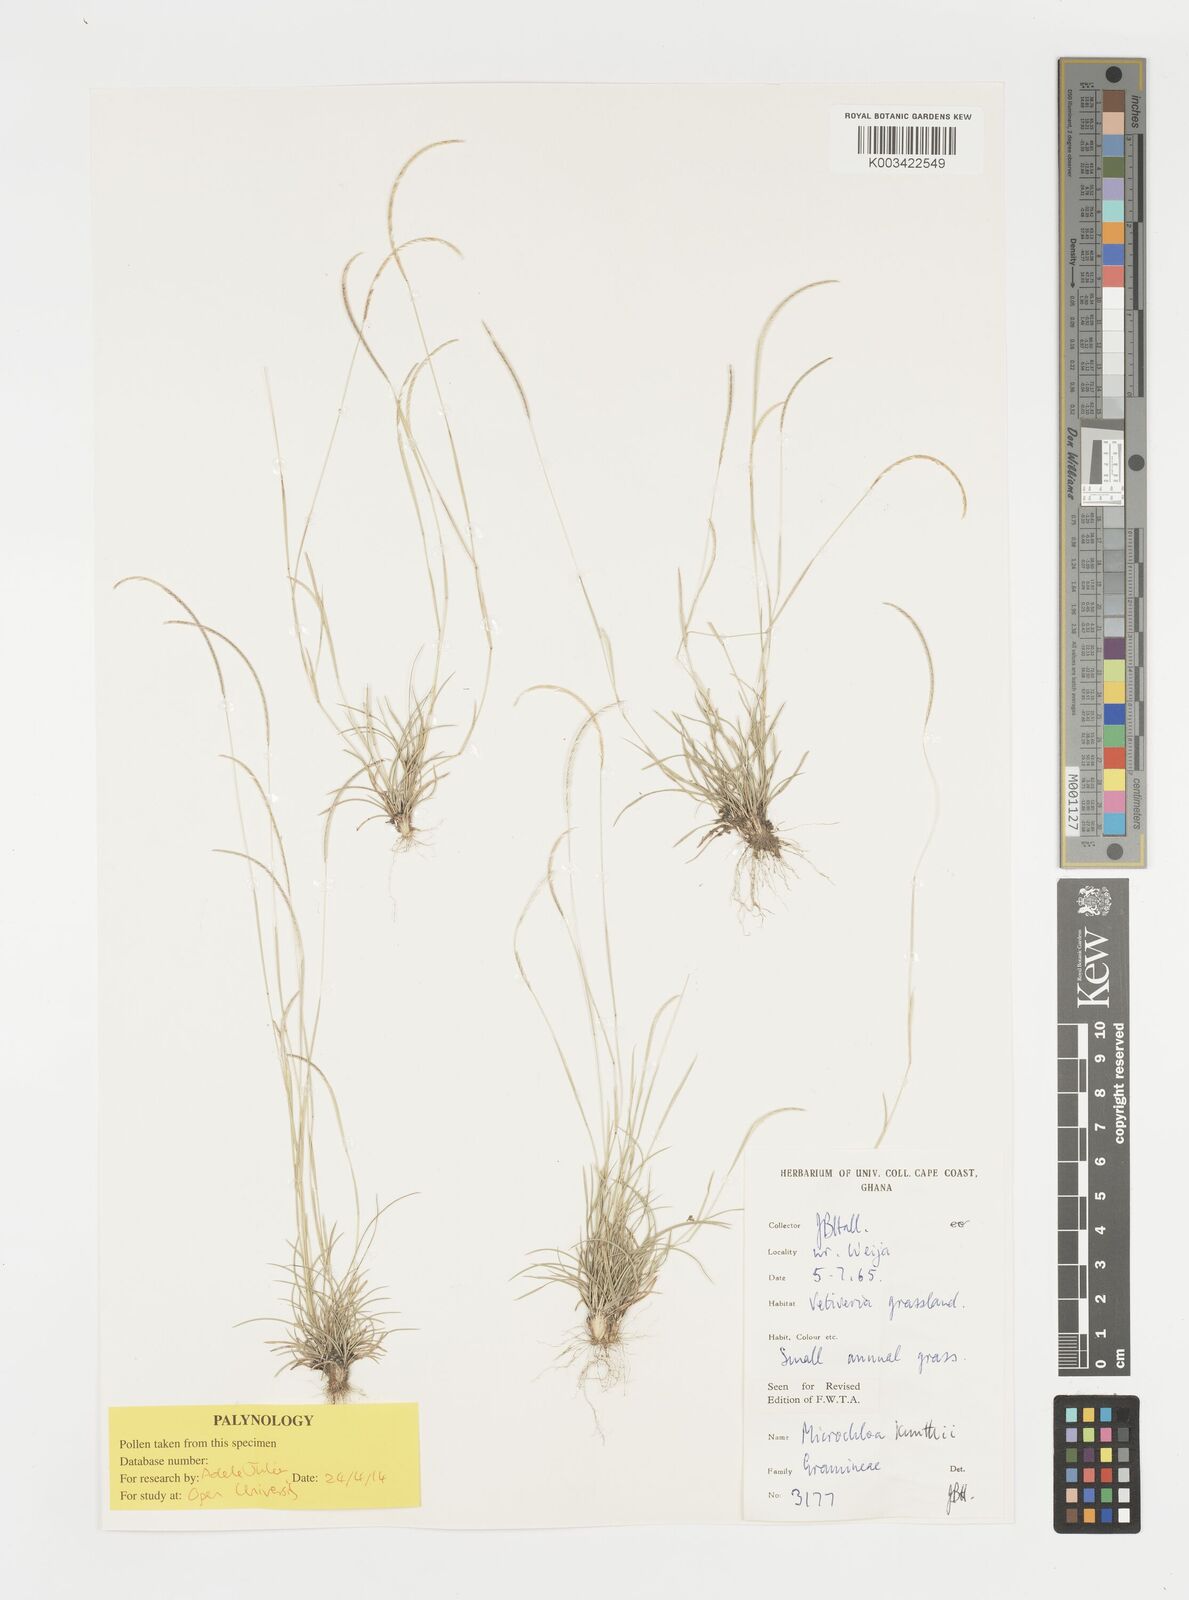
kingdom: Plantae
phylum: Tracheophyta
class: Liliopsida
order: Poales
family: Poaceae
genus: Microchloa
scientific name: Microchloa kunthii
